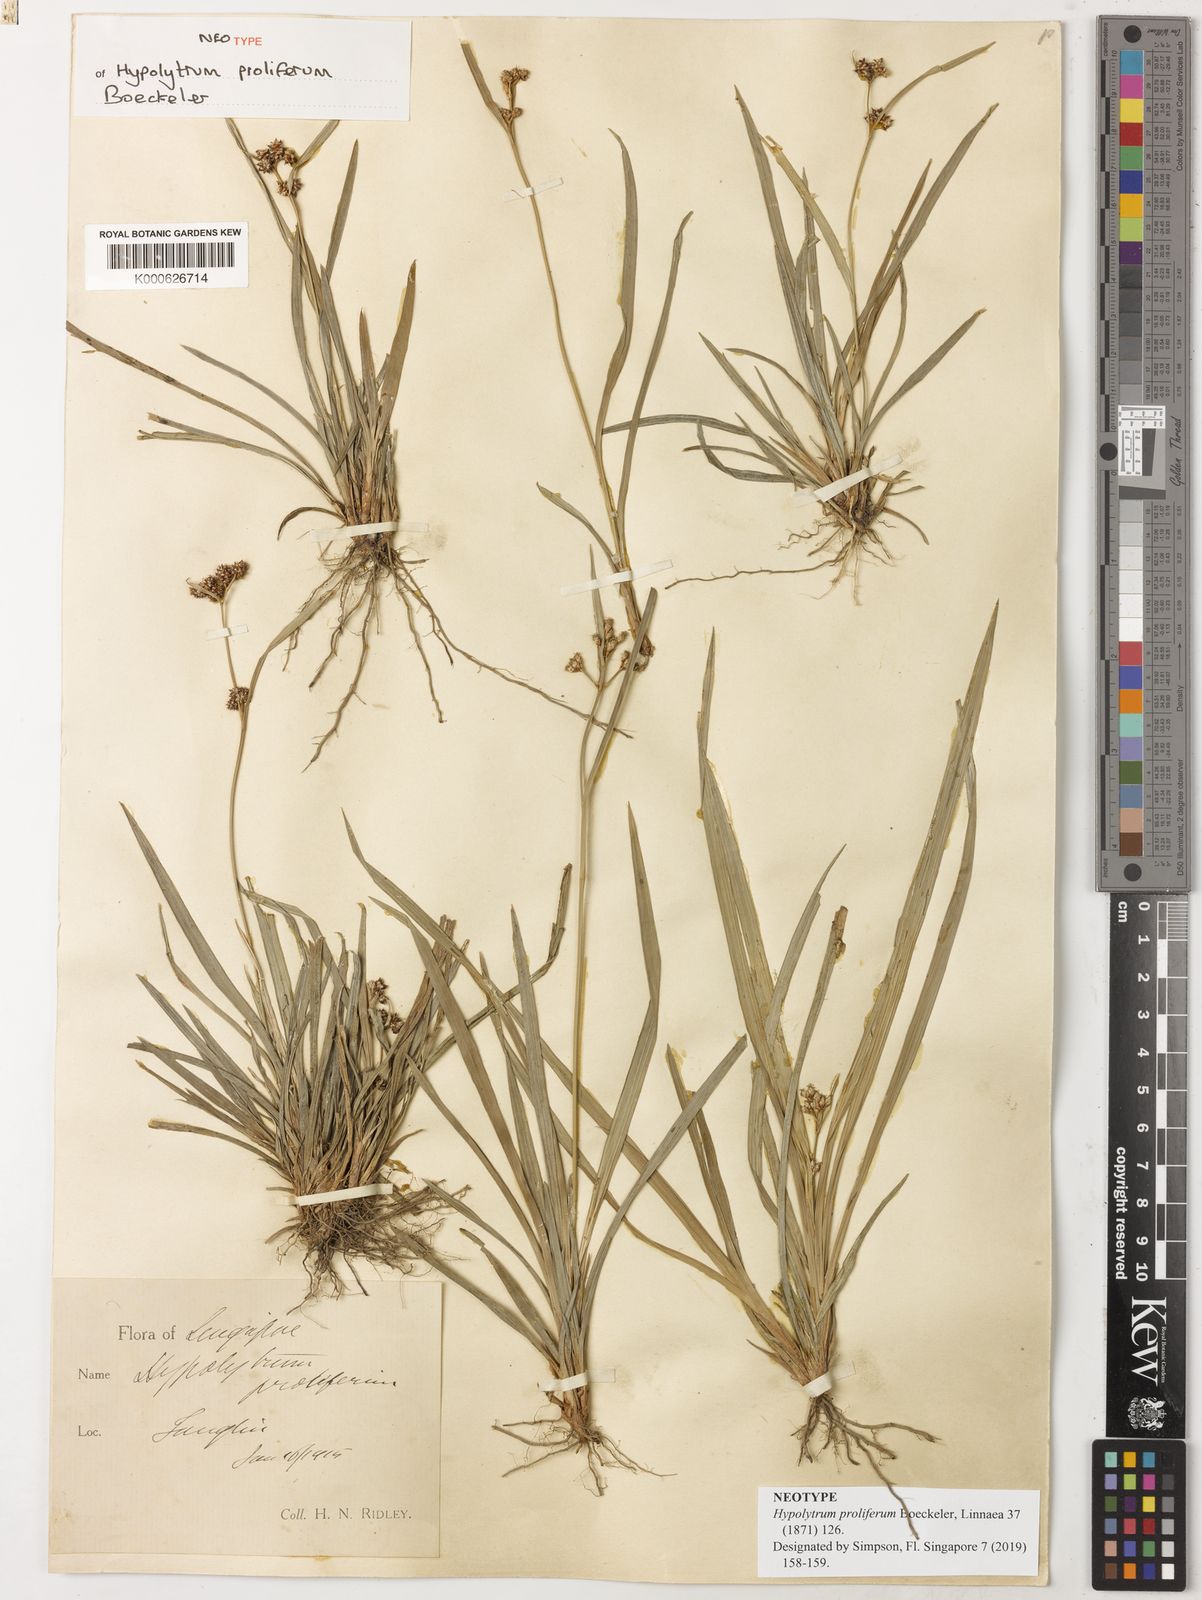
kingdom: Plantae
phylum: Tracheophyta
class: Liliopsida
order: Poales
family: Cyperaceae
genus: Hypolytrum
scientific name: Hypolytrum nemorum
